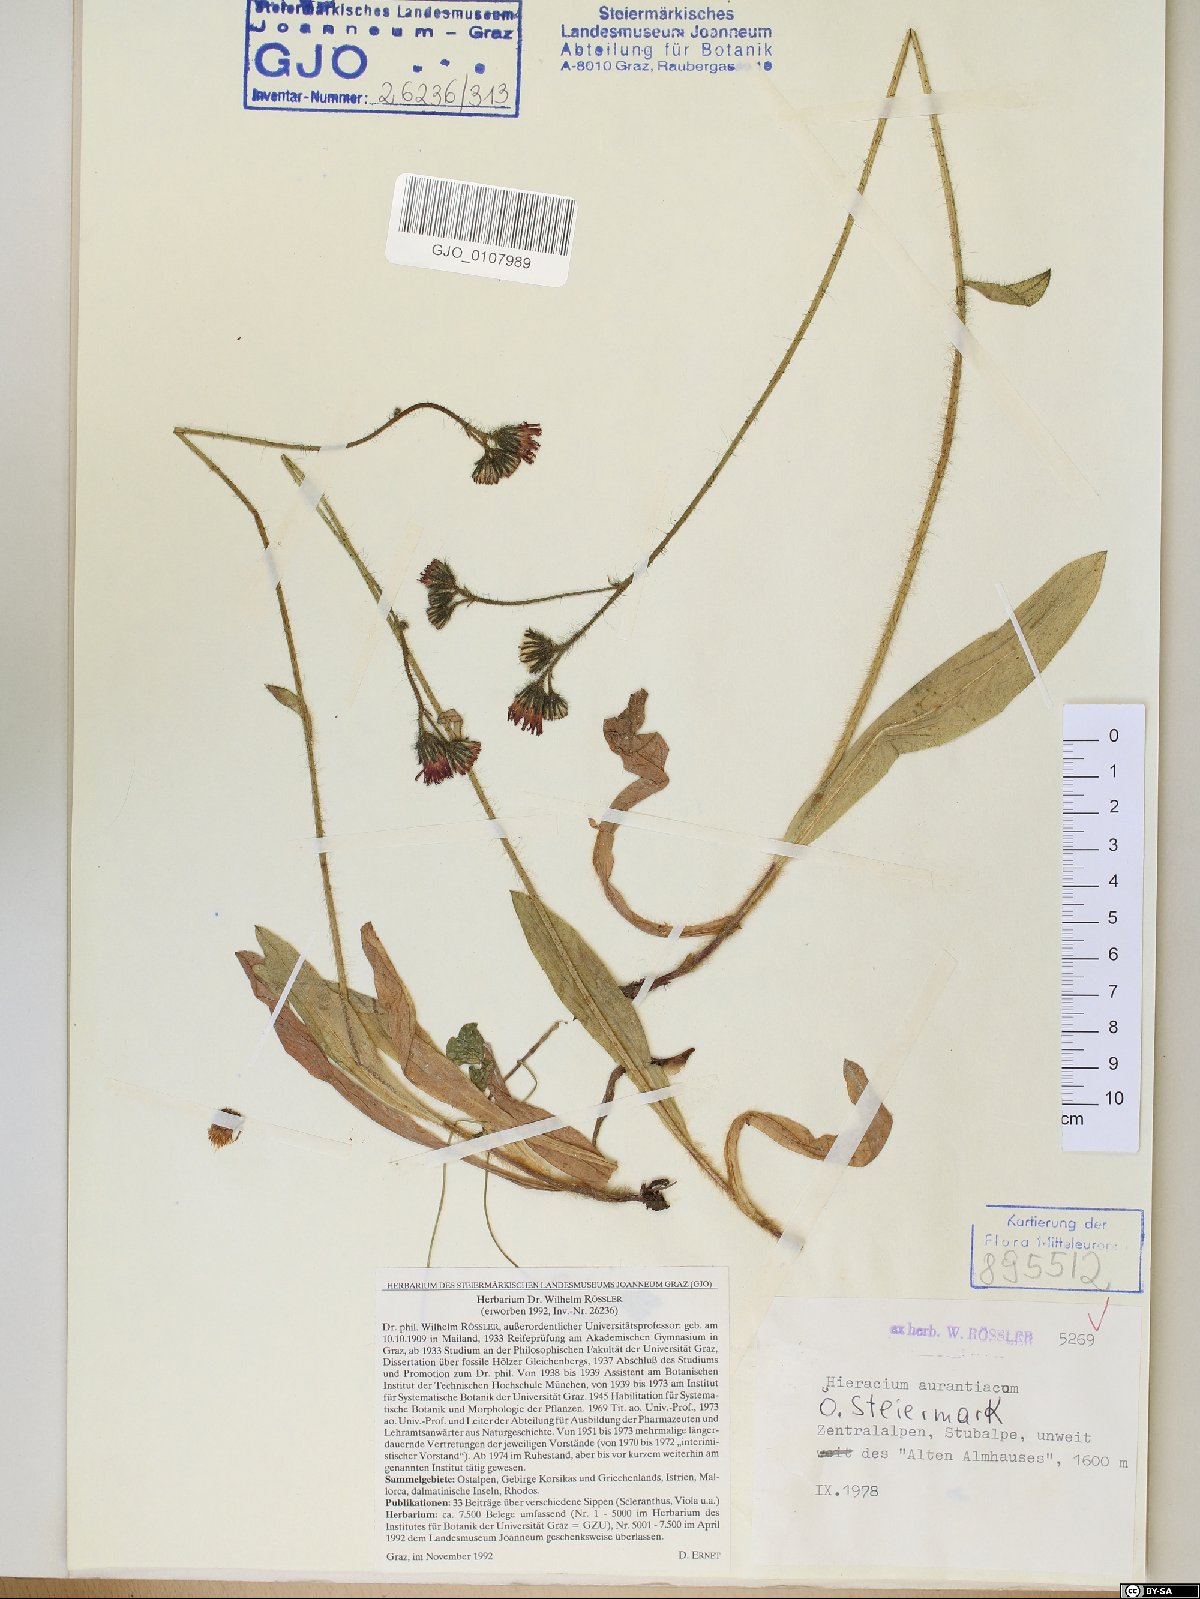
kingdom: Plantae
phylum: Tracheophyta
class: Magnoliopsida
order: Asterales
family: Asteraceae
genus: Pilosella
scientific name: Pilosella aurantiaca
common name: Fox-and-cubs
